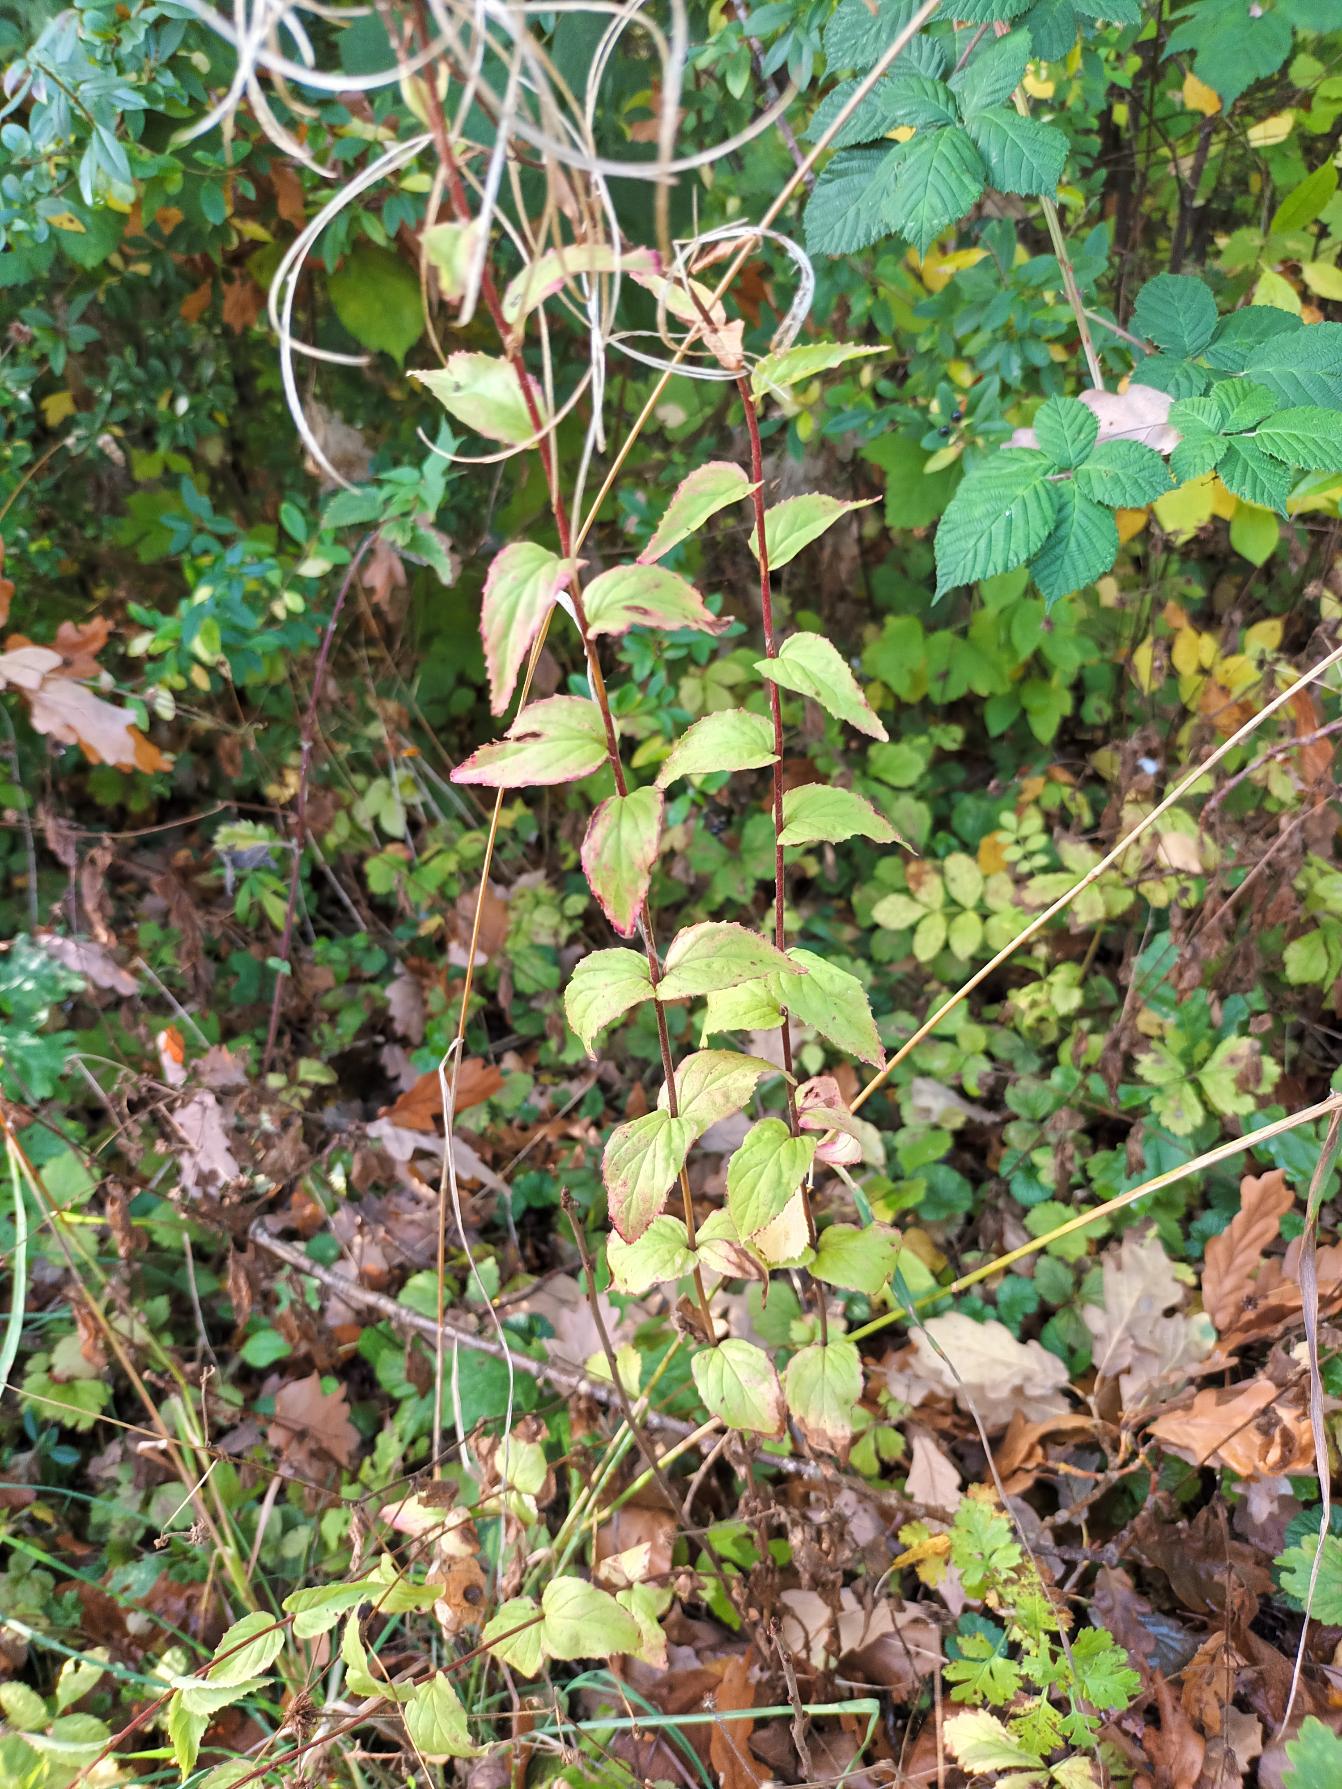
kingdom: Plantae
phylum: Tracheophyta
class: Magnoliopsida
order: Myrtales
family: Onagraceae
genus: Epilobium
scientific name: Epilobium montanum
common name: Glat dueurt
